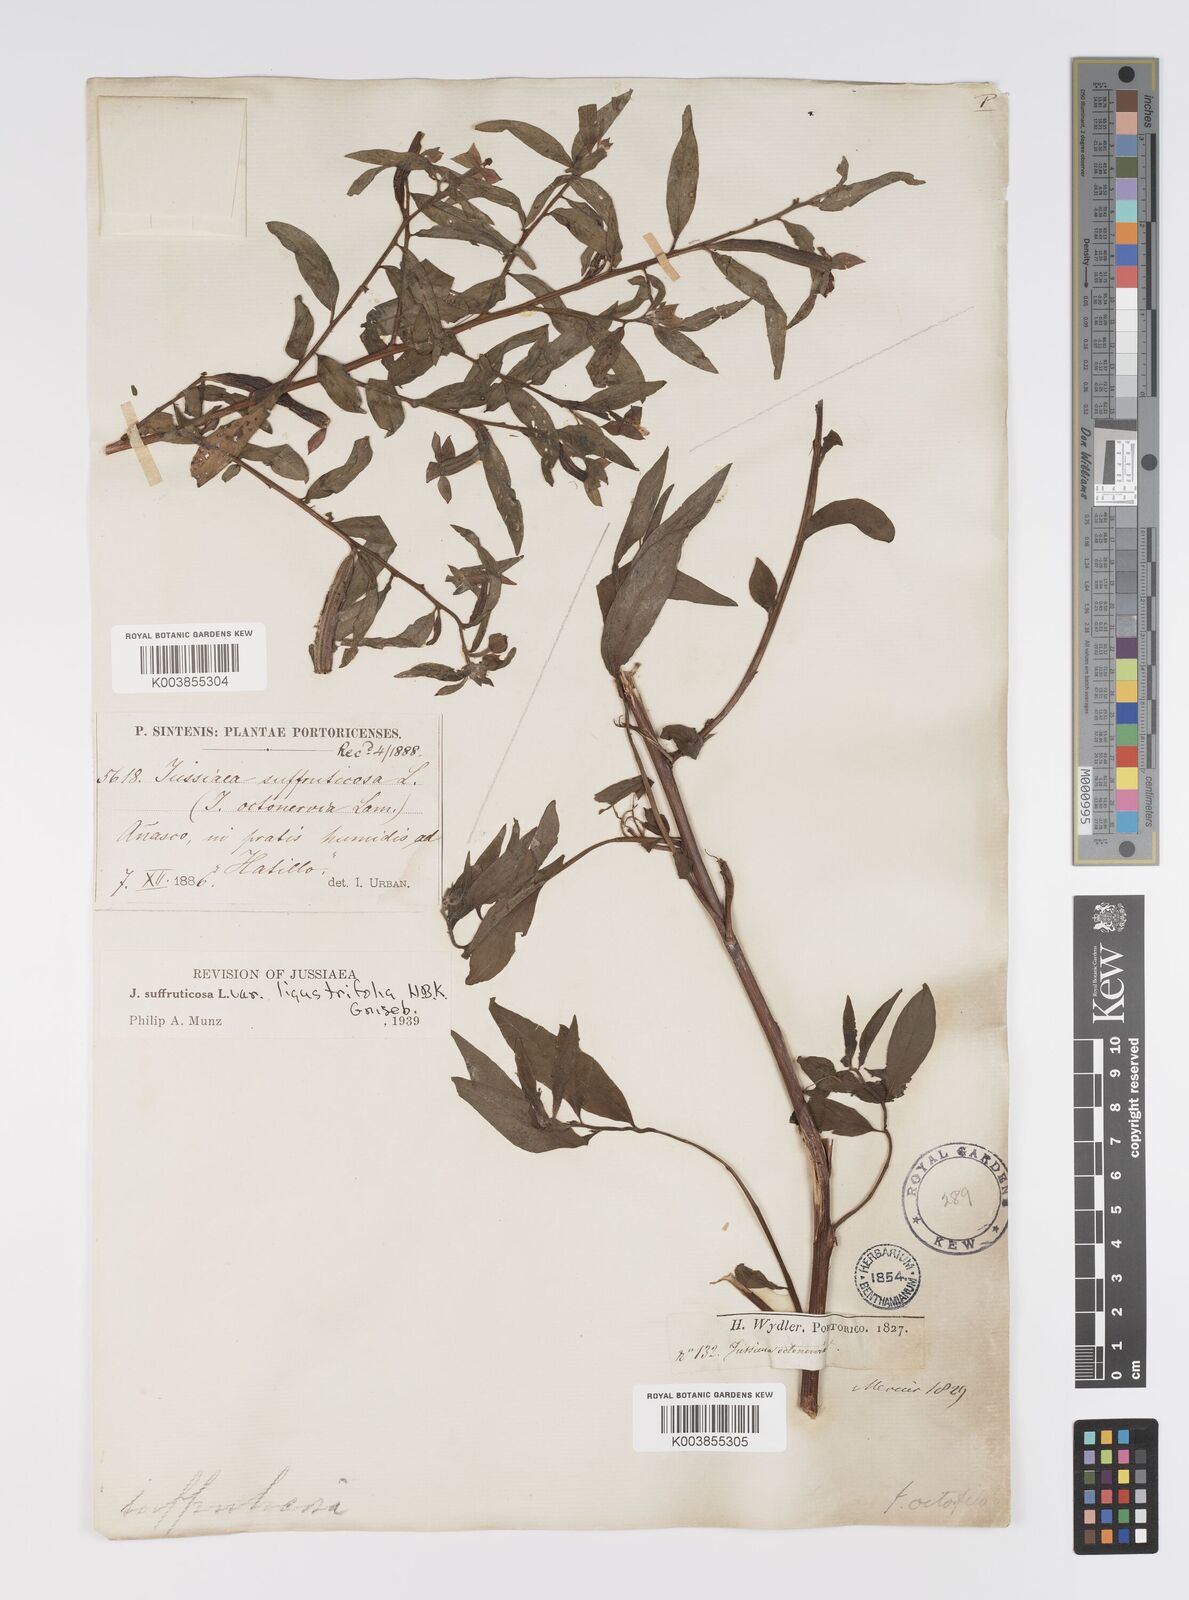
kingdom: Plantae
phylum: Tracheophyta
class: Magnoliopsida
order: Myrtales
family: Onagraceae
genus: Ludwigia
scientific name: Ludwigia
